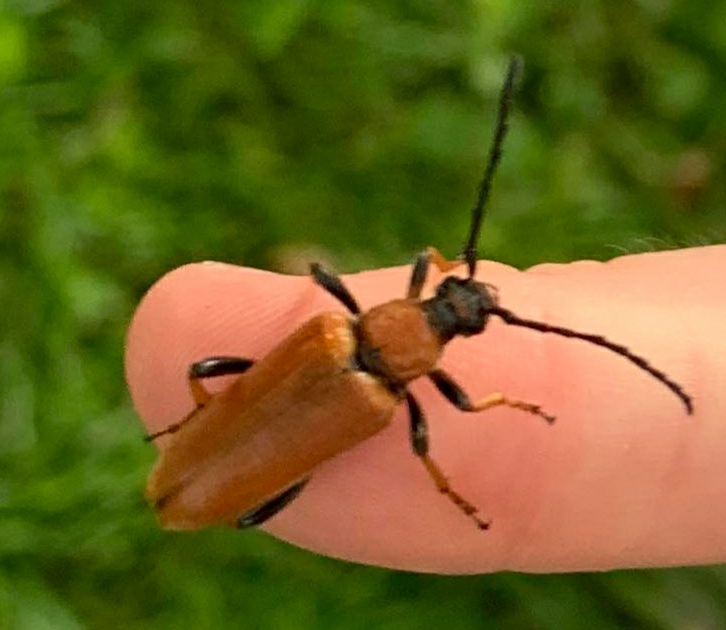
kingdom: Animalia
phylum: Arthropoda
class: Insecta
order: Coleoptera
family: Cerambycidae
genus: Stictoleptura
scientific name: Stictoleptura rubra
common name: Rød blomsterbuk
